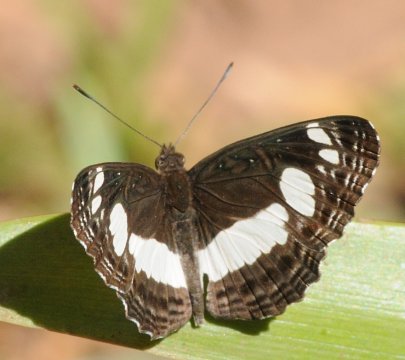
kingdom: Animalia
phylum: Arthropoda
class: Insecta
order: Lepidoptera
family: Nymphalidae
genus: Neptis
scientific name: Neptis saclava
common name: Spotted Sailer
